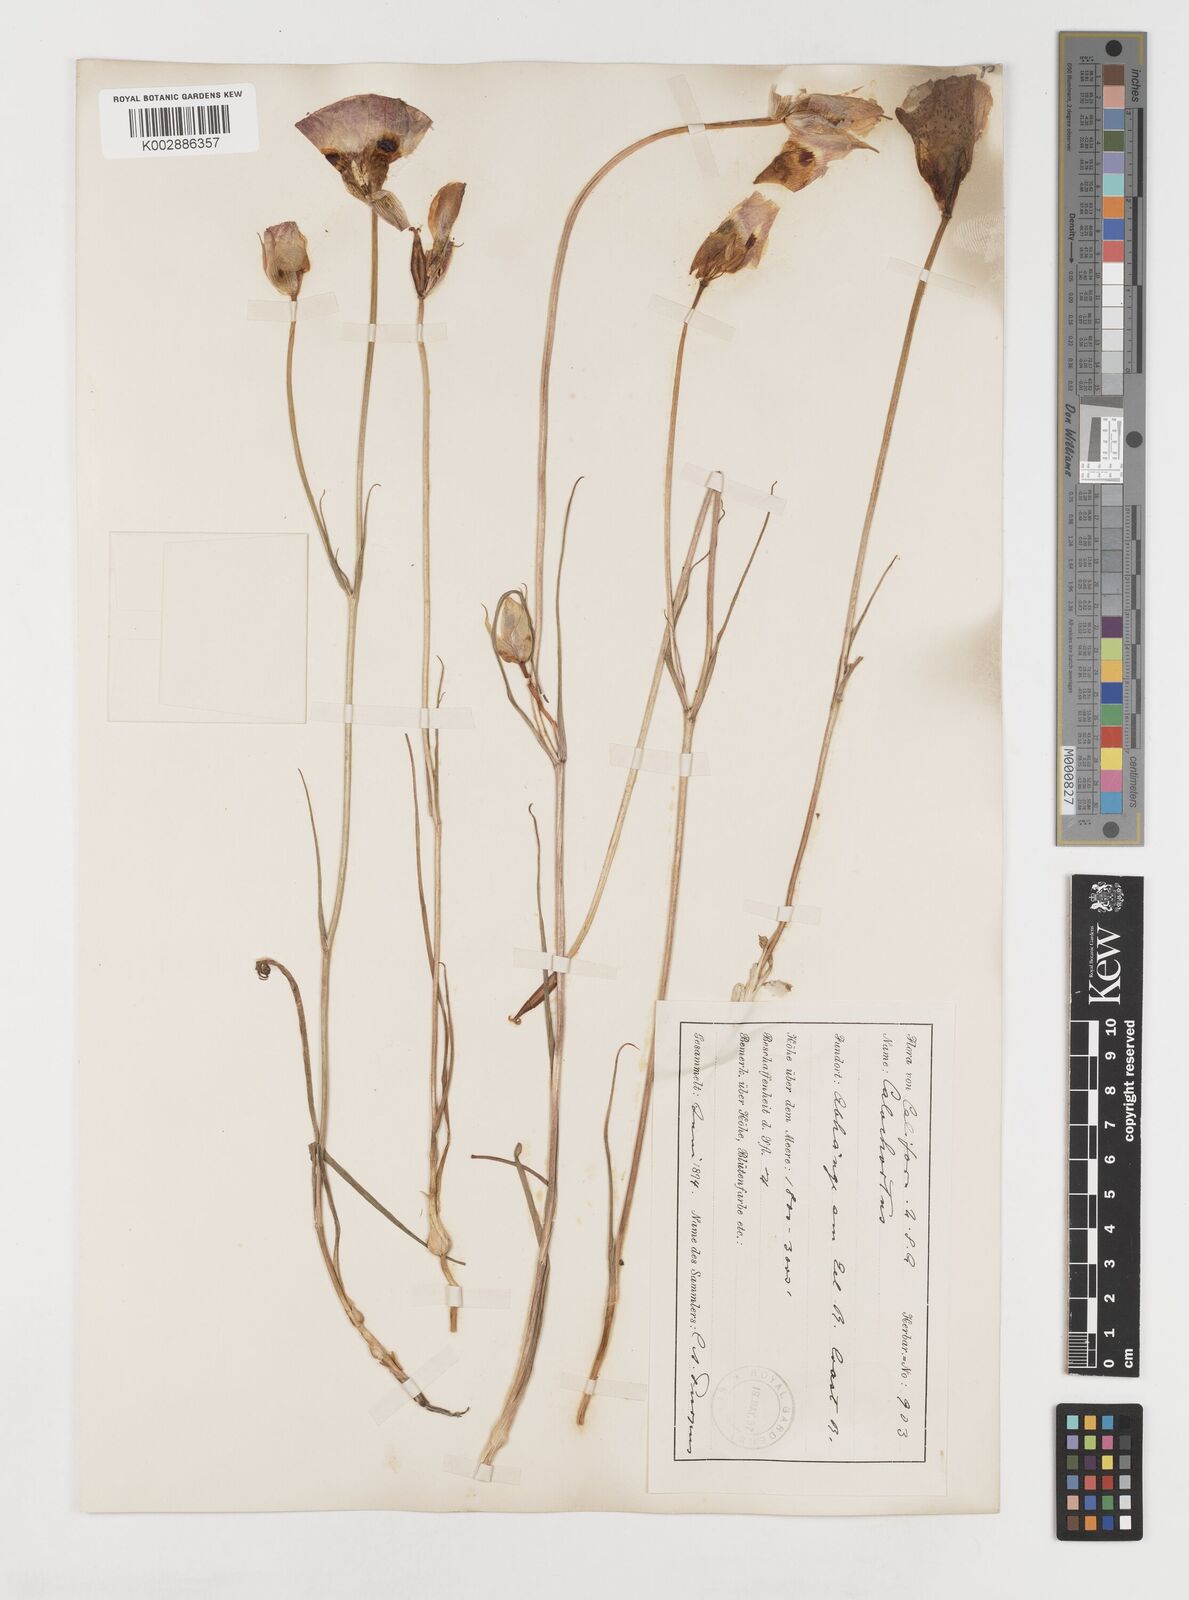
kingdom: Plantae
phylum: Tracheophyta
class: Liliopsida
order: Liliales
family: Liliaceae
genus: Calochortus
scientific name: Calochortus venustus
